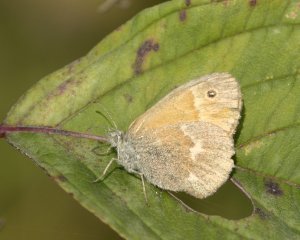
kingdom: Animalia
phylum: Arthropoda
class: Insecta
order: Lepidoptera
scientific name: Lepidoptera
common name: Butterflies
